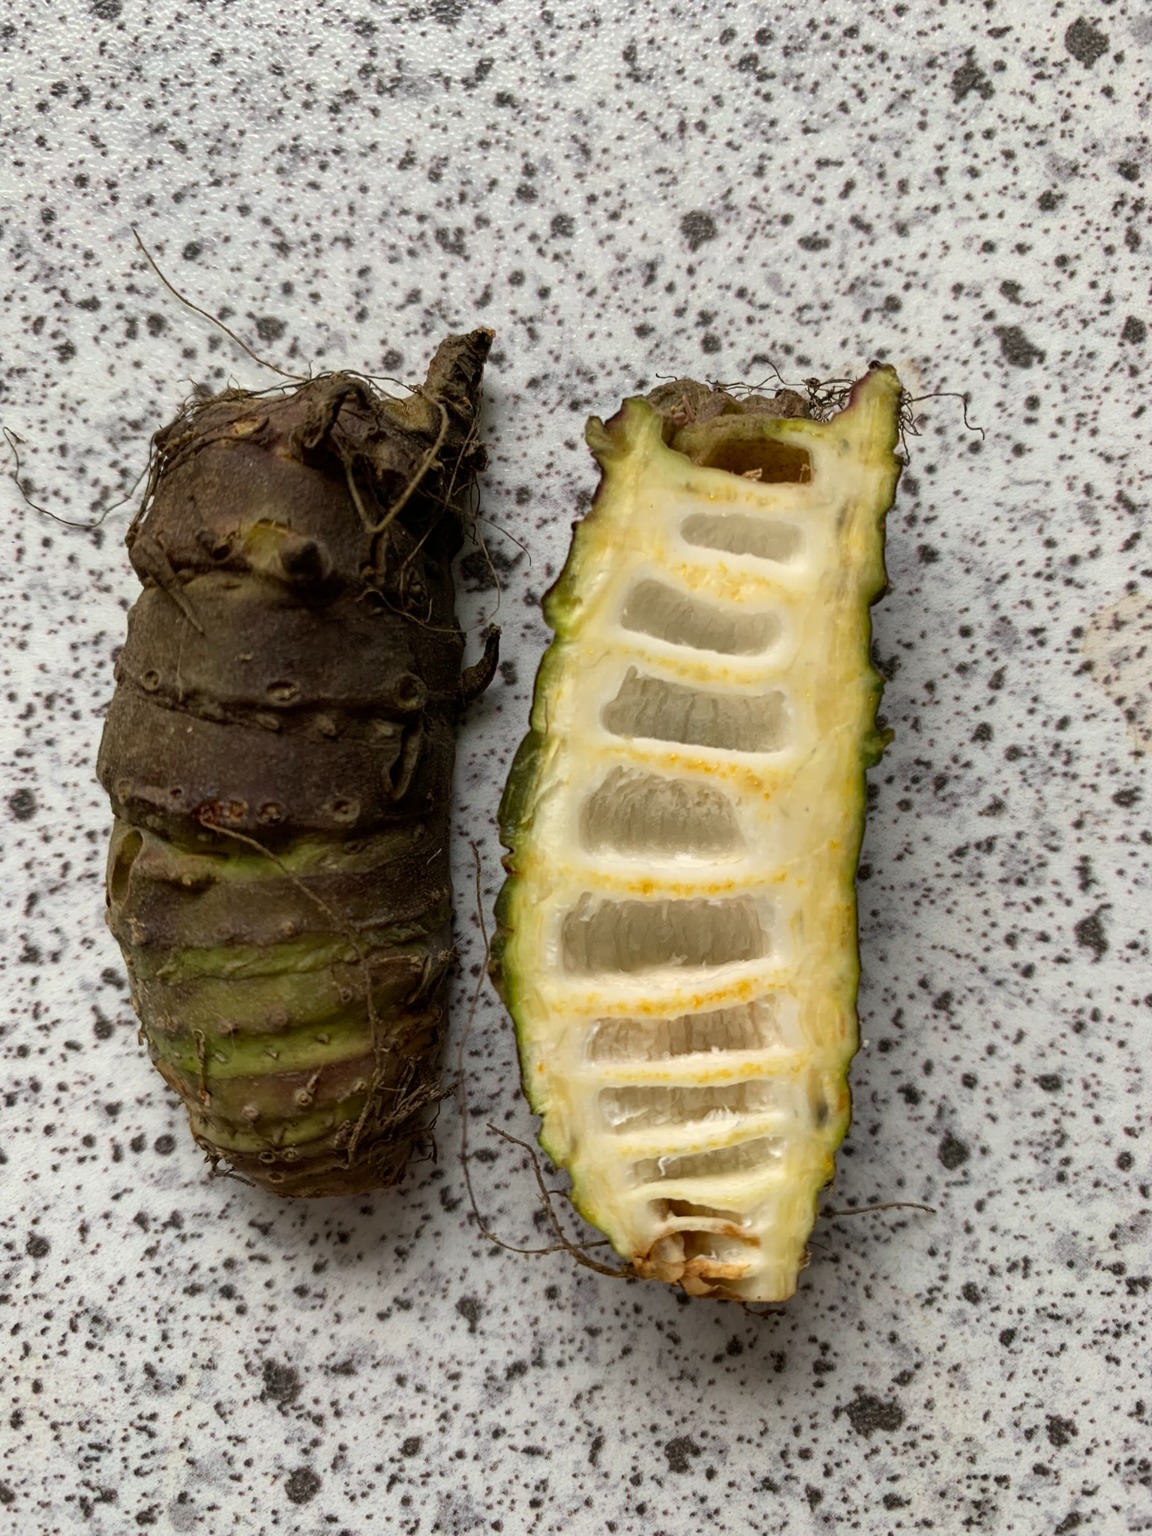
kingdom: Plantae
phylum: Tracheophyta
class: Magnoliopsida
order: Apiales
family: Apiaceae
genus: Cicuta
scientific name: Cicuta virosa
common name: Gifttyde
